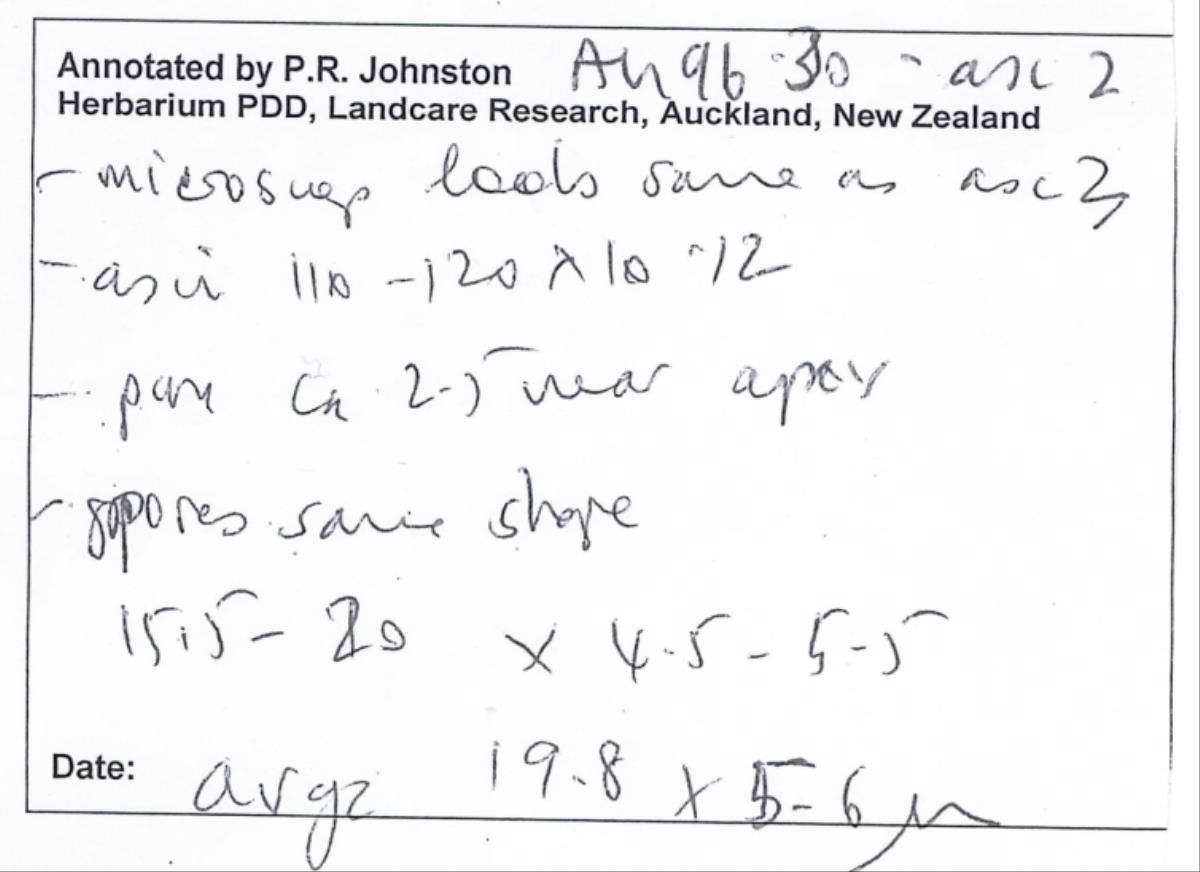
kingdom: Fungi
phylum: Ascomycota
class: Leotiomycetes
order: Helotiales
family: Helotiaceae
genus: Hymenotorrendiella
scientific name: Hymenotorrendiella spooneri
